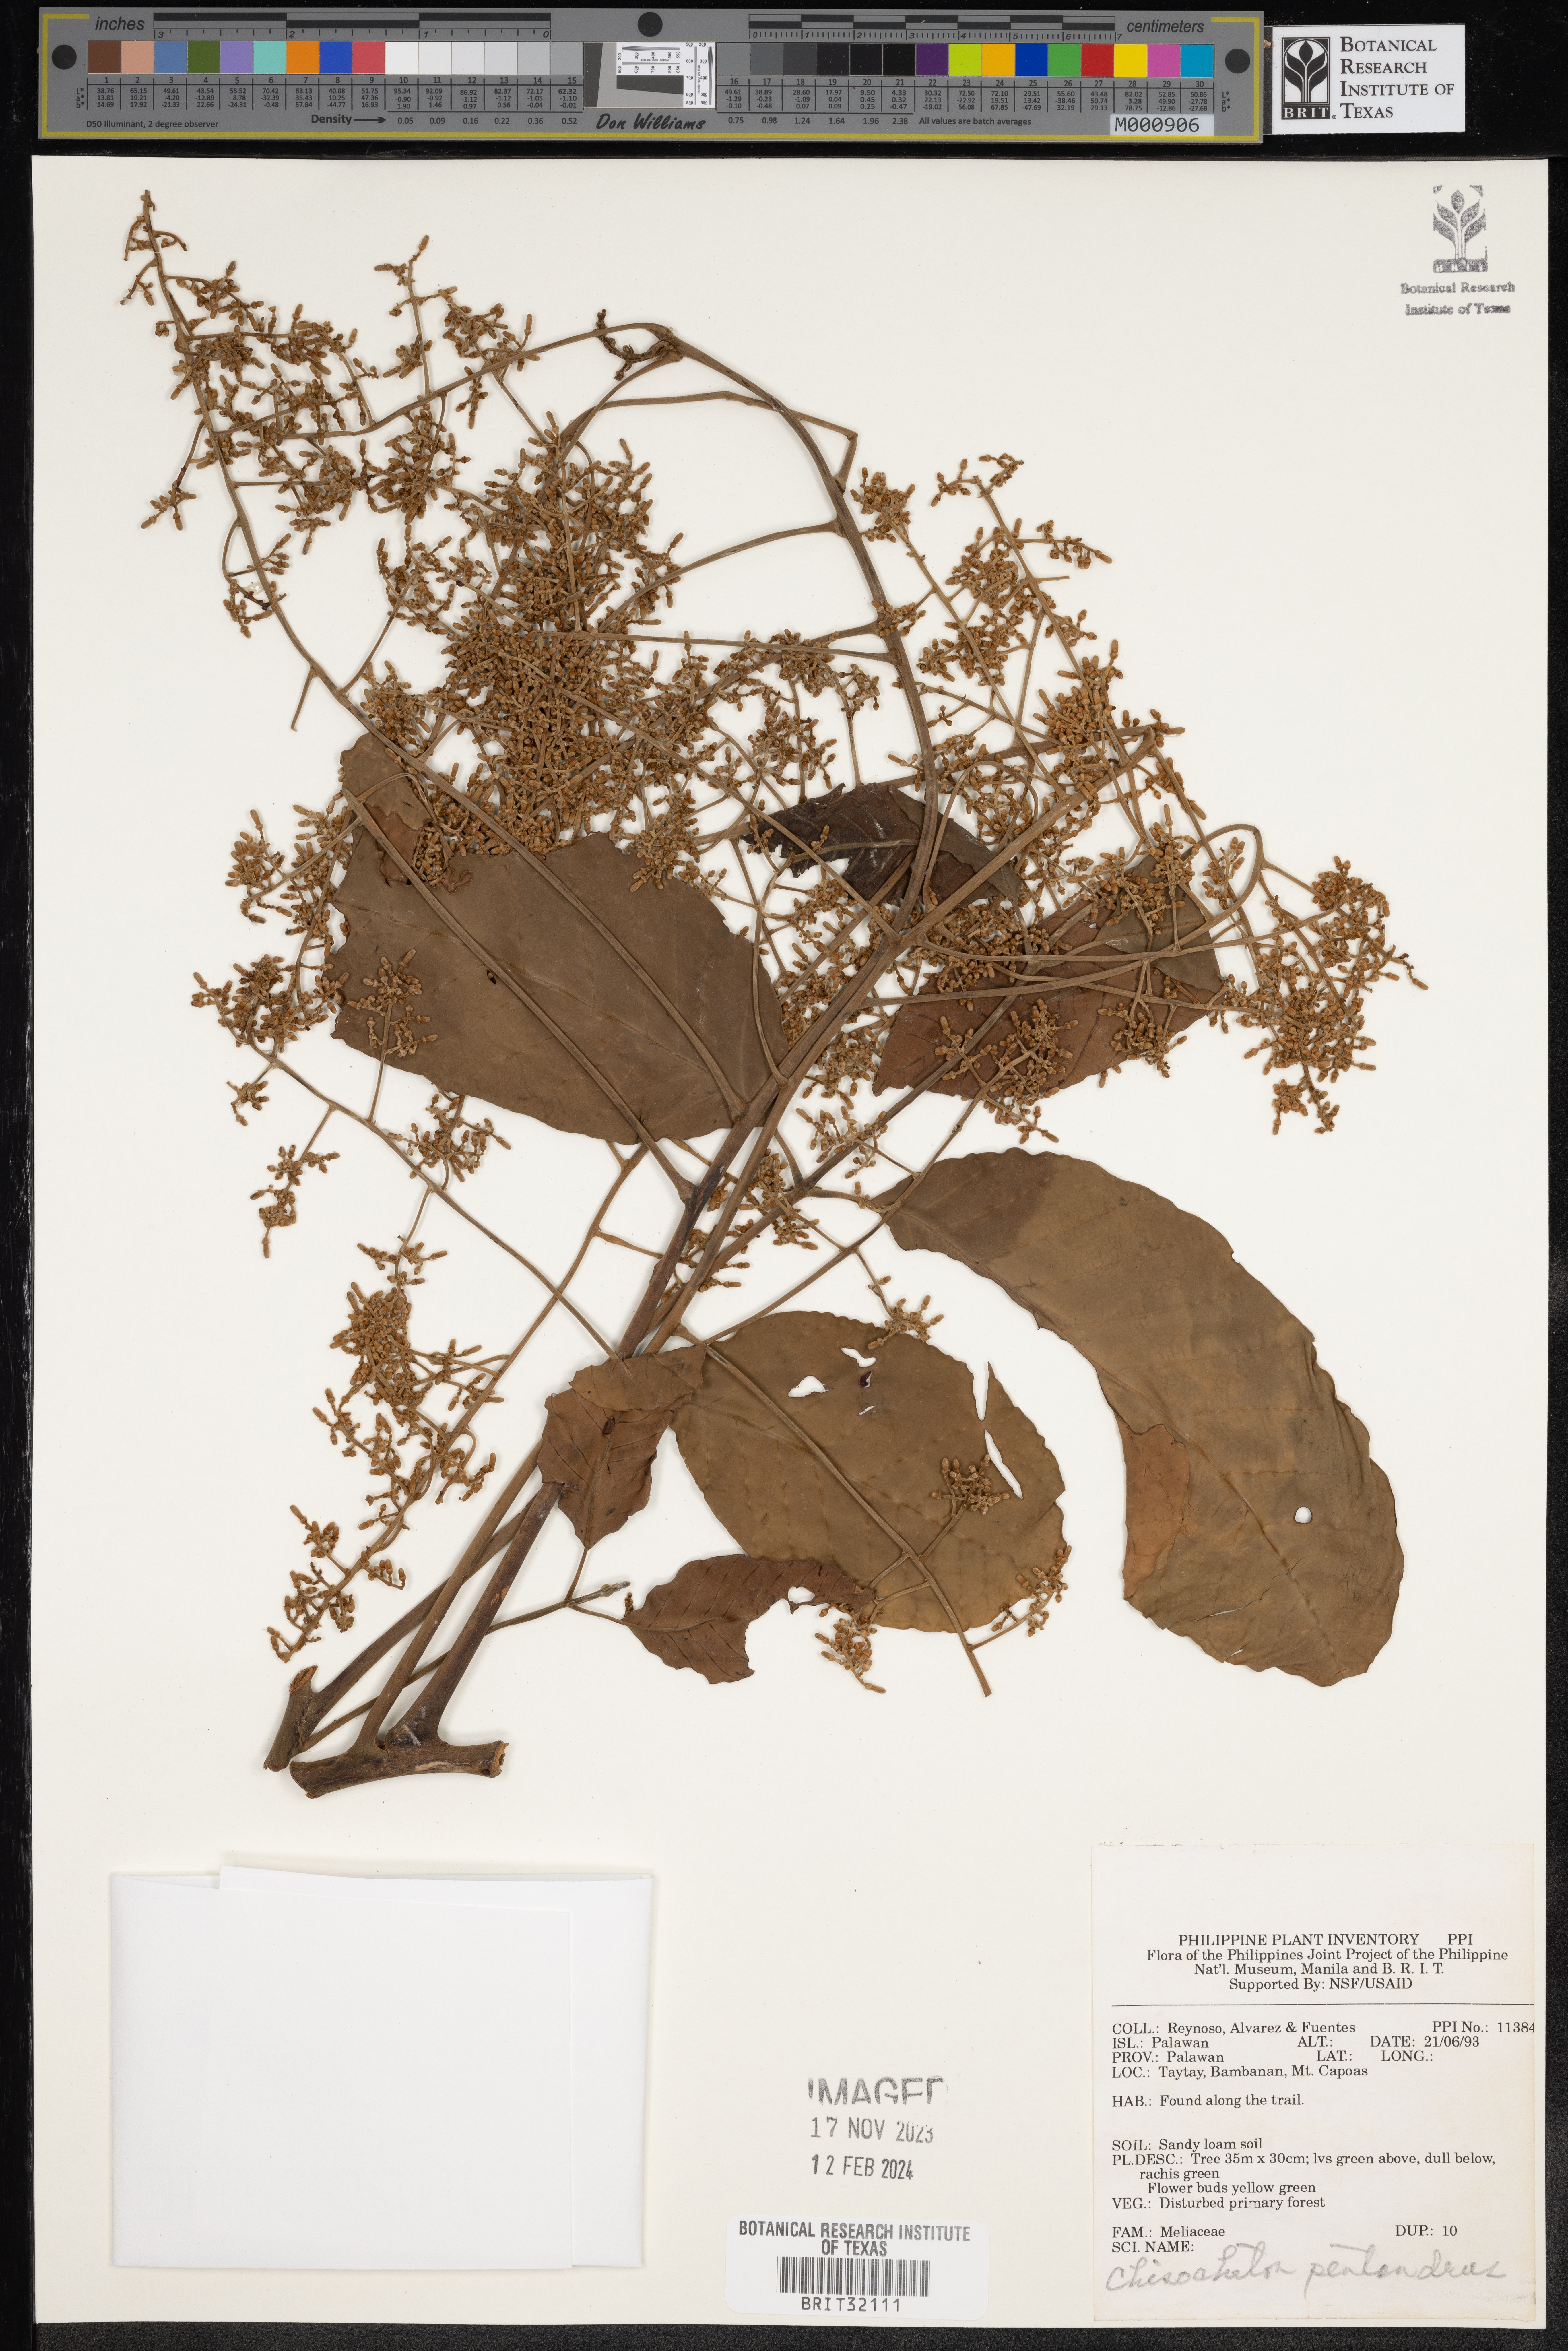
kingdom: Plantae
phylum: Tracheophyta
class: Magnoliopsida
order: Sapindales
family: Meliaceae
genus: Chisocheton
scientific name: Chisocheton pentandrus
